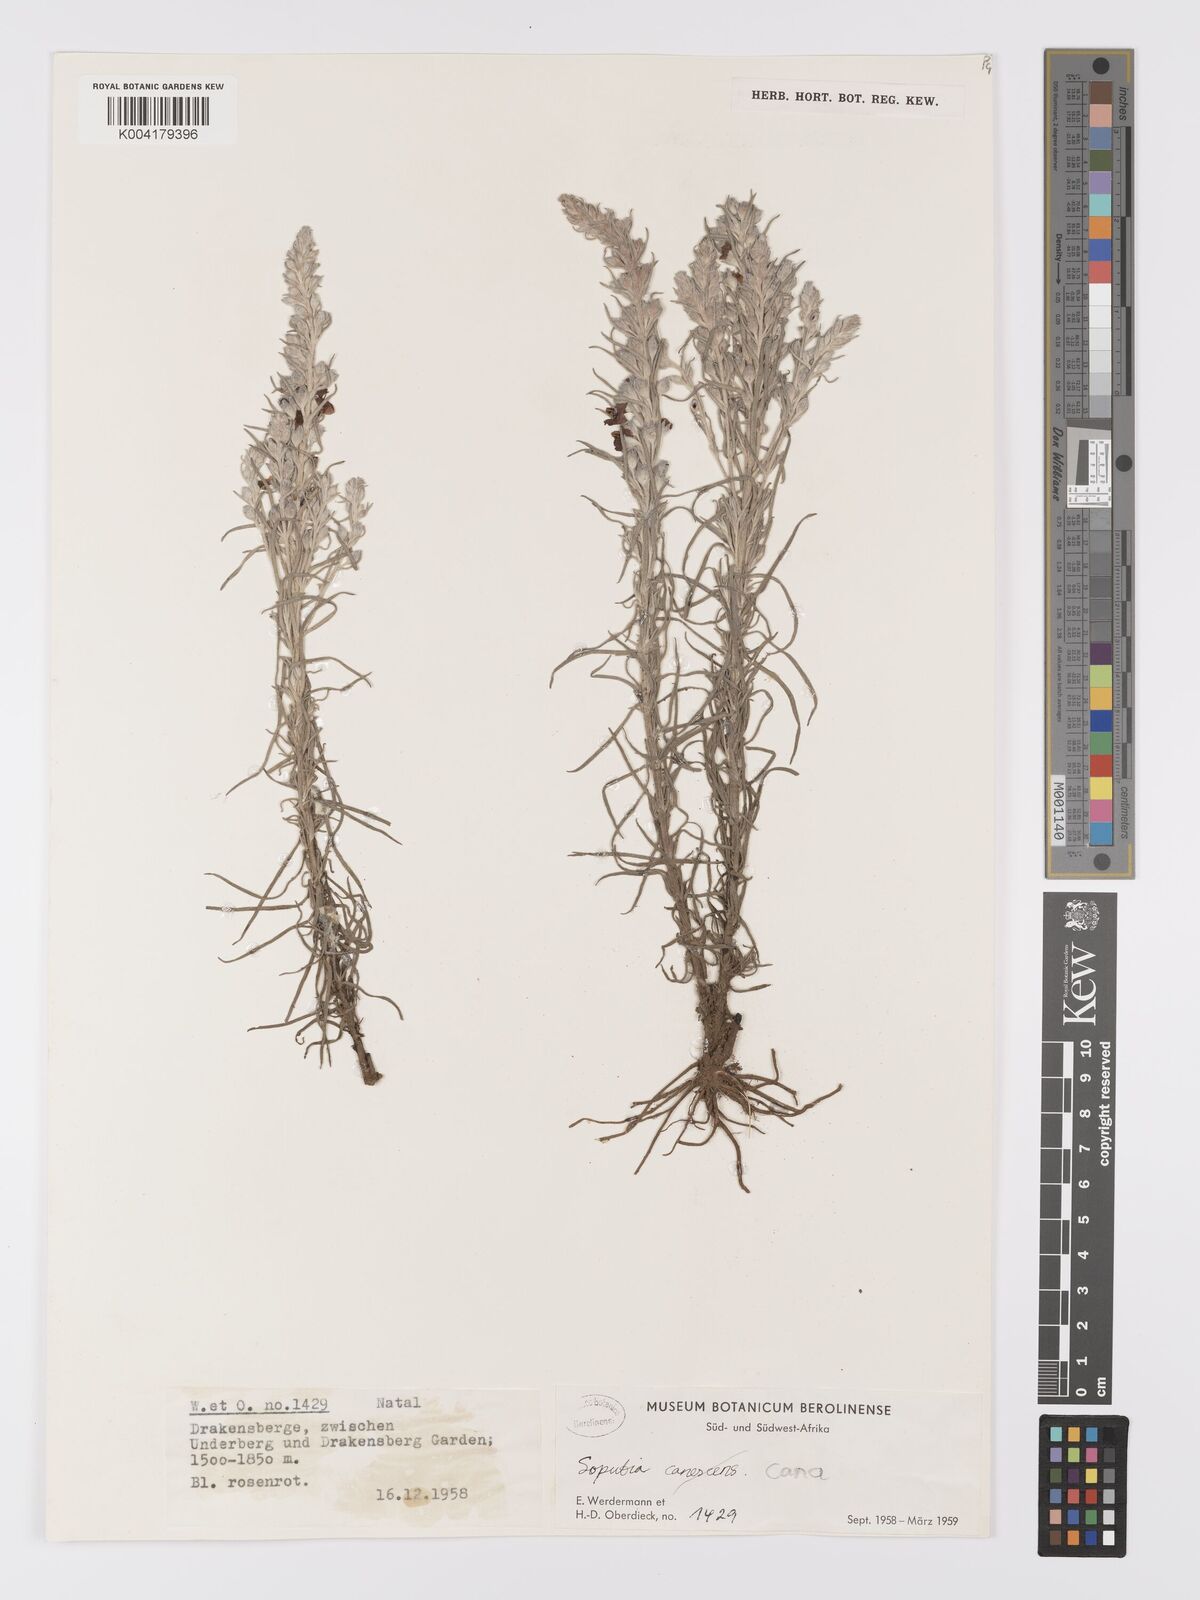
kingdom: Plantae
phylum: Tracheophyta
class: Magnoliopsida
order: Lamiales
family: Orobanchaceae
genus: Sopubia
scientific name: Sopubia cana
